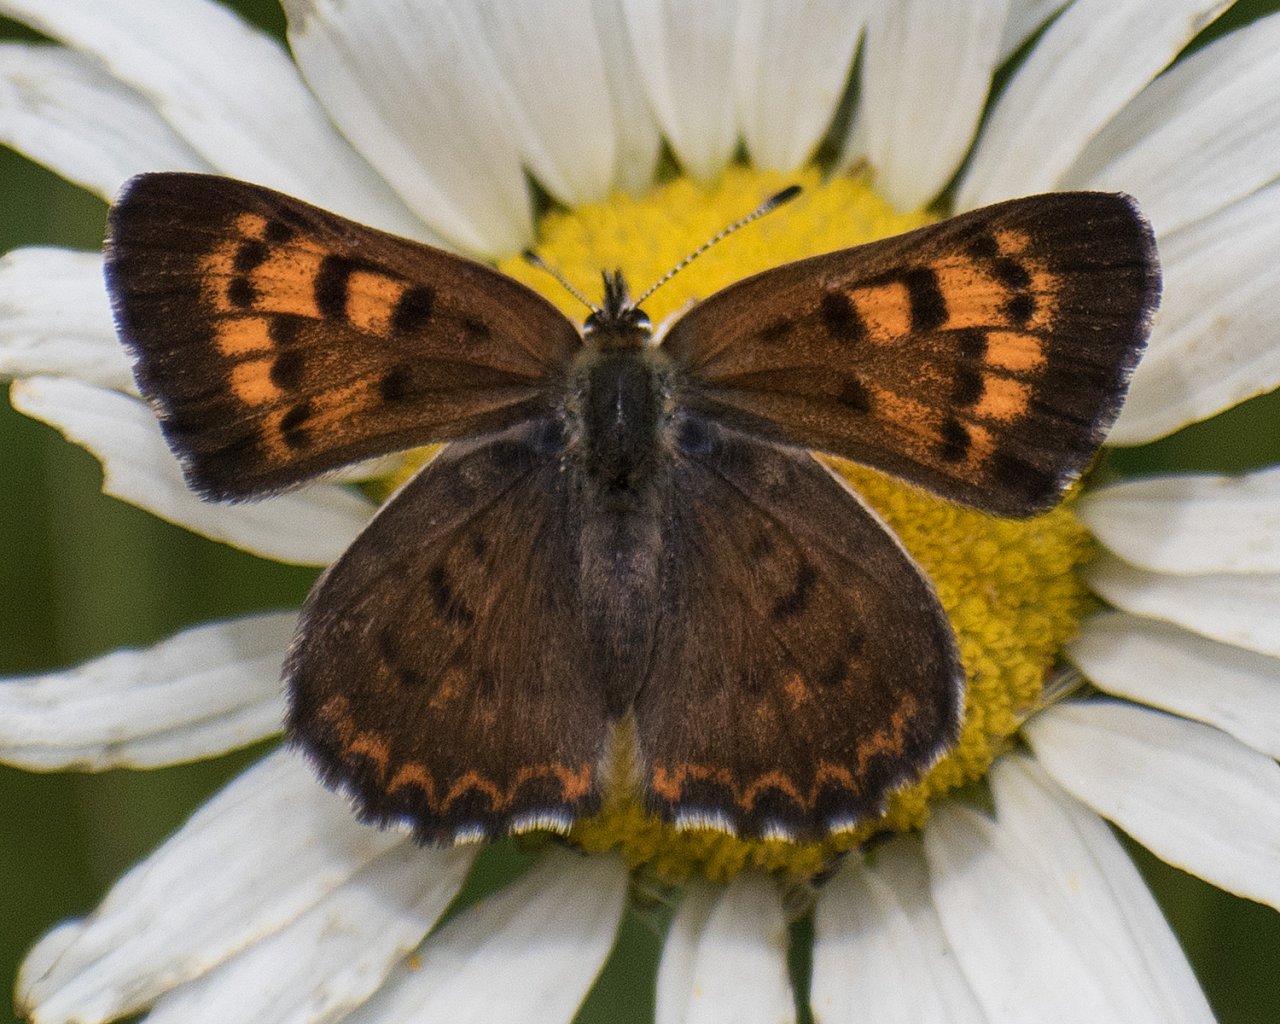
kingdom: Animalia
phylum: Arthropoda
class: Insecta
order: Lepidoptera
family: Lycaenidae
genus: Lycaena
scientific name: Lycaena mariposa
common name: Mariposa Copper
